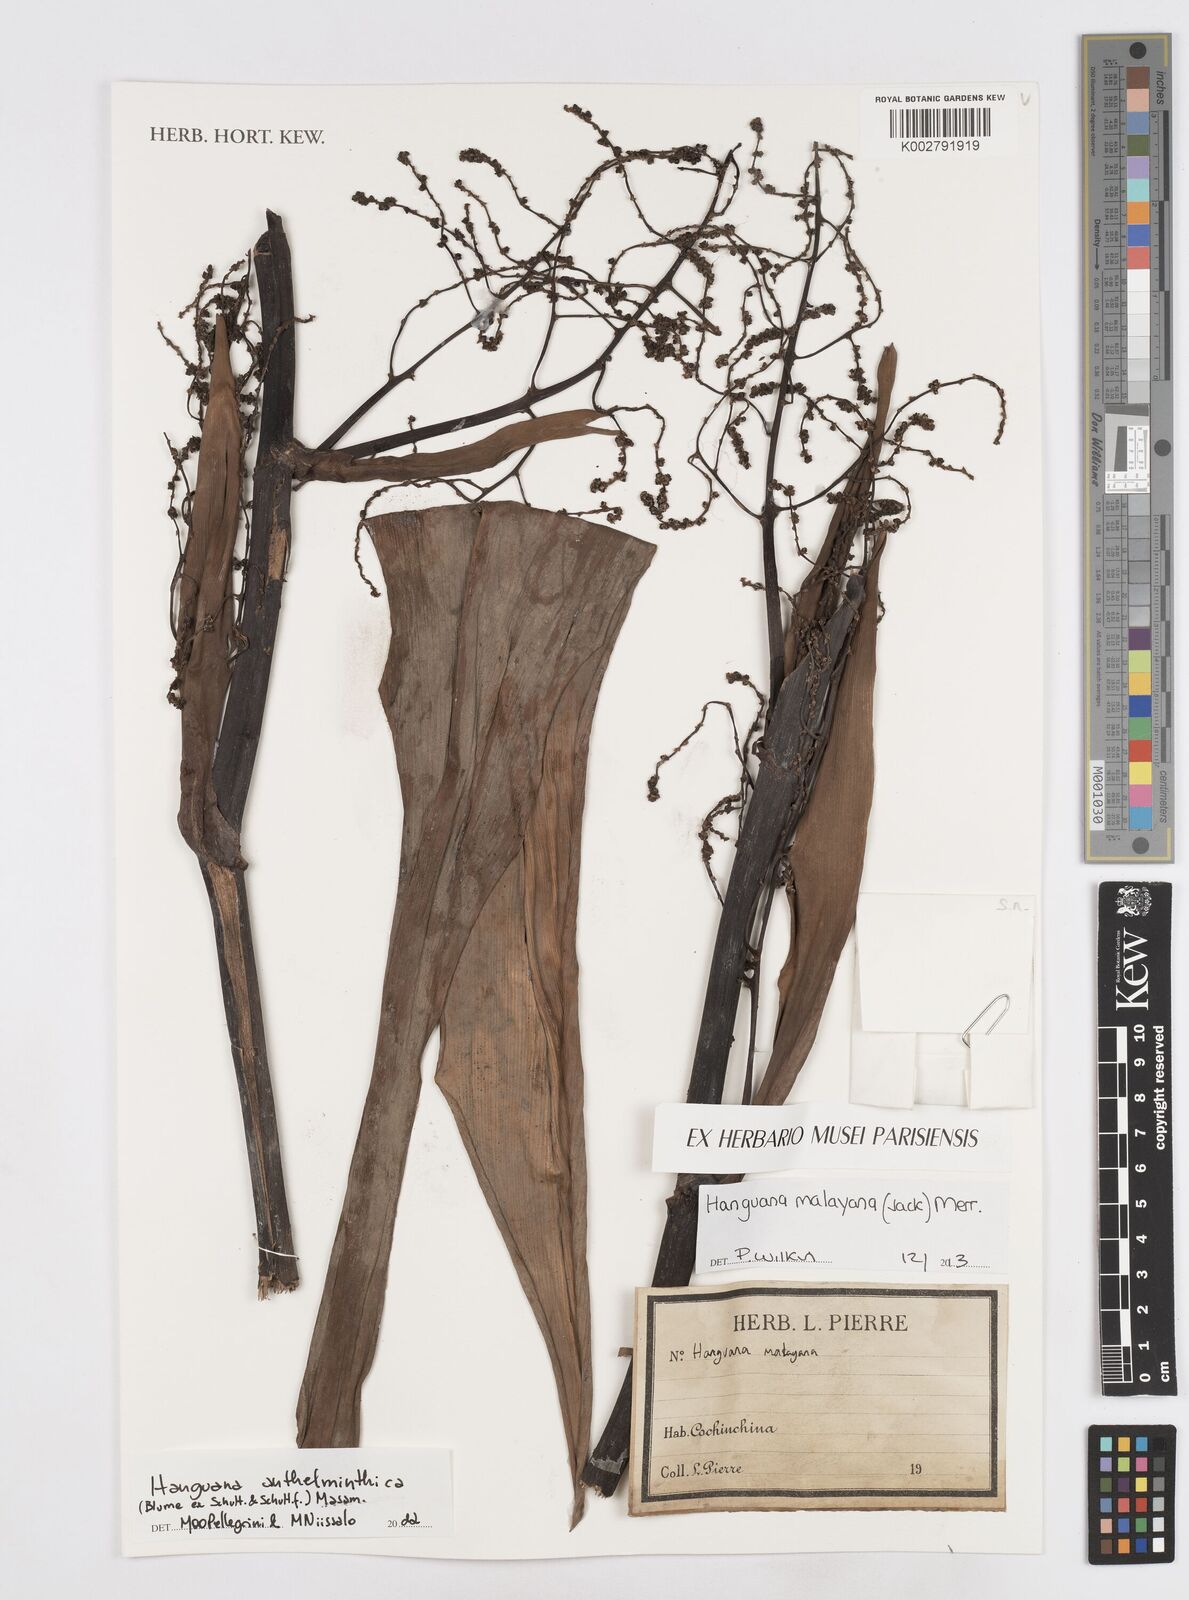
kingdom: Plantae
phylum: Tracheophyta
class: Liliopsida
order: Commelinales
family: Hanguanaceae
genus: Hanguana
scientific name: Hanguana anthelminthica
